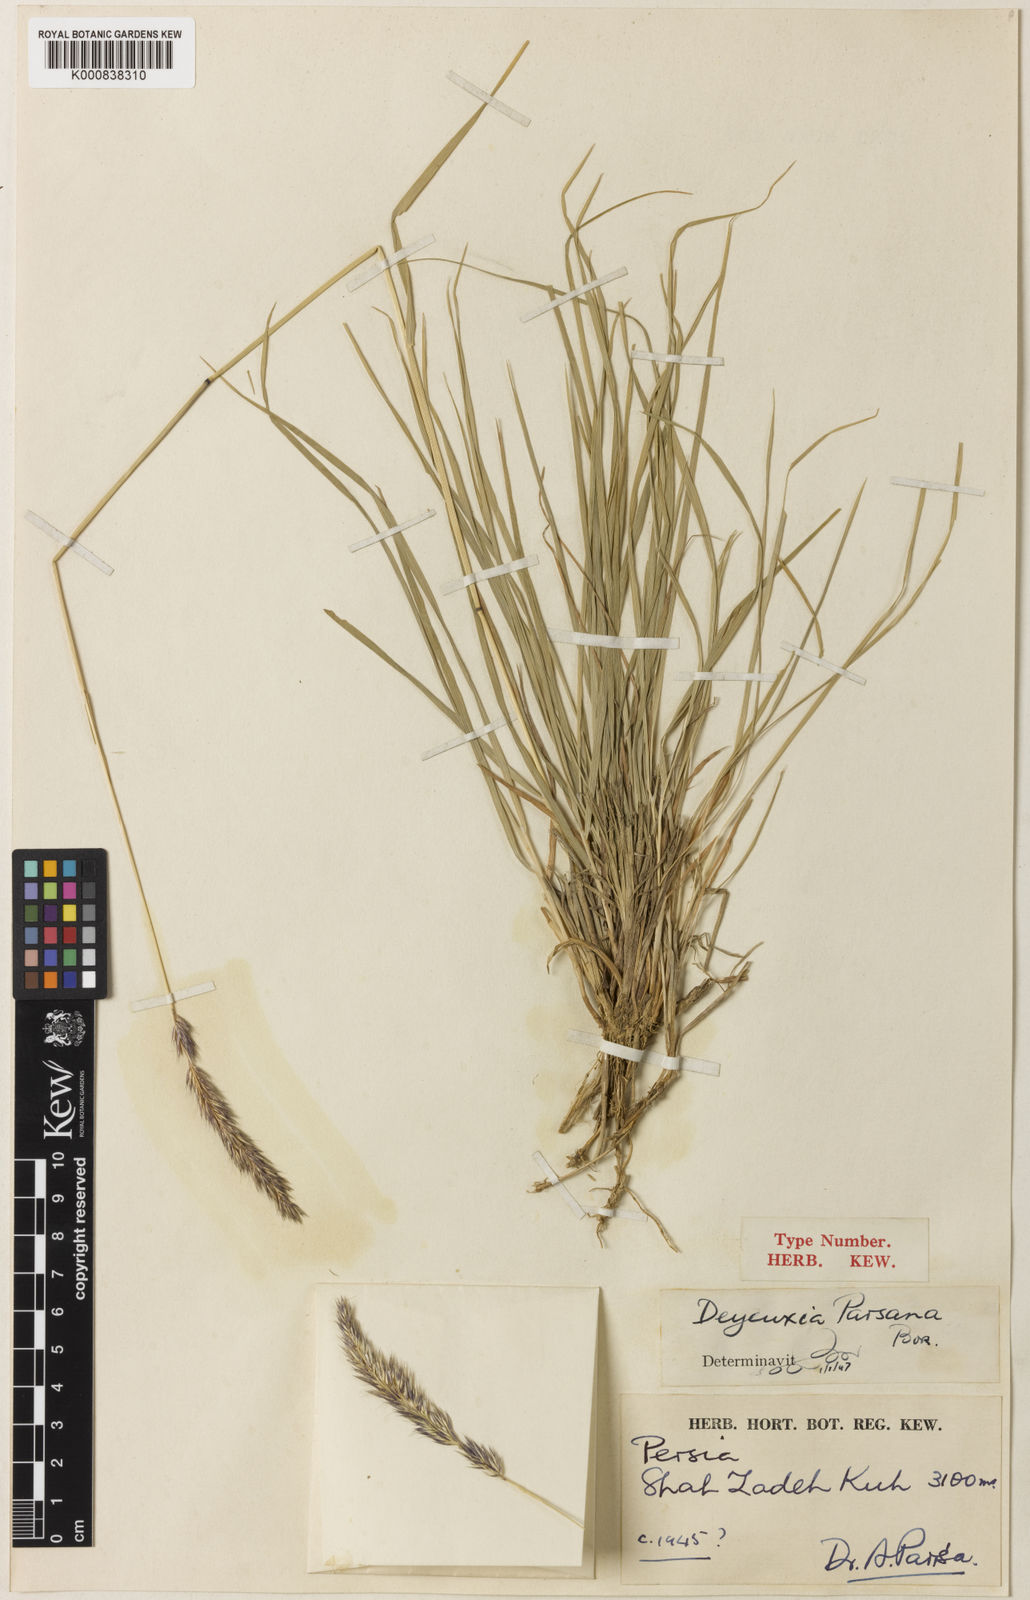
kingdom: Plantae
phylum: Tracheophyta
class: Liliopsida
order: Poales
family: Poaceae
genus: Calamagrostis
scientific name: Calamagrostis parsana
